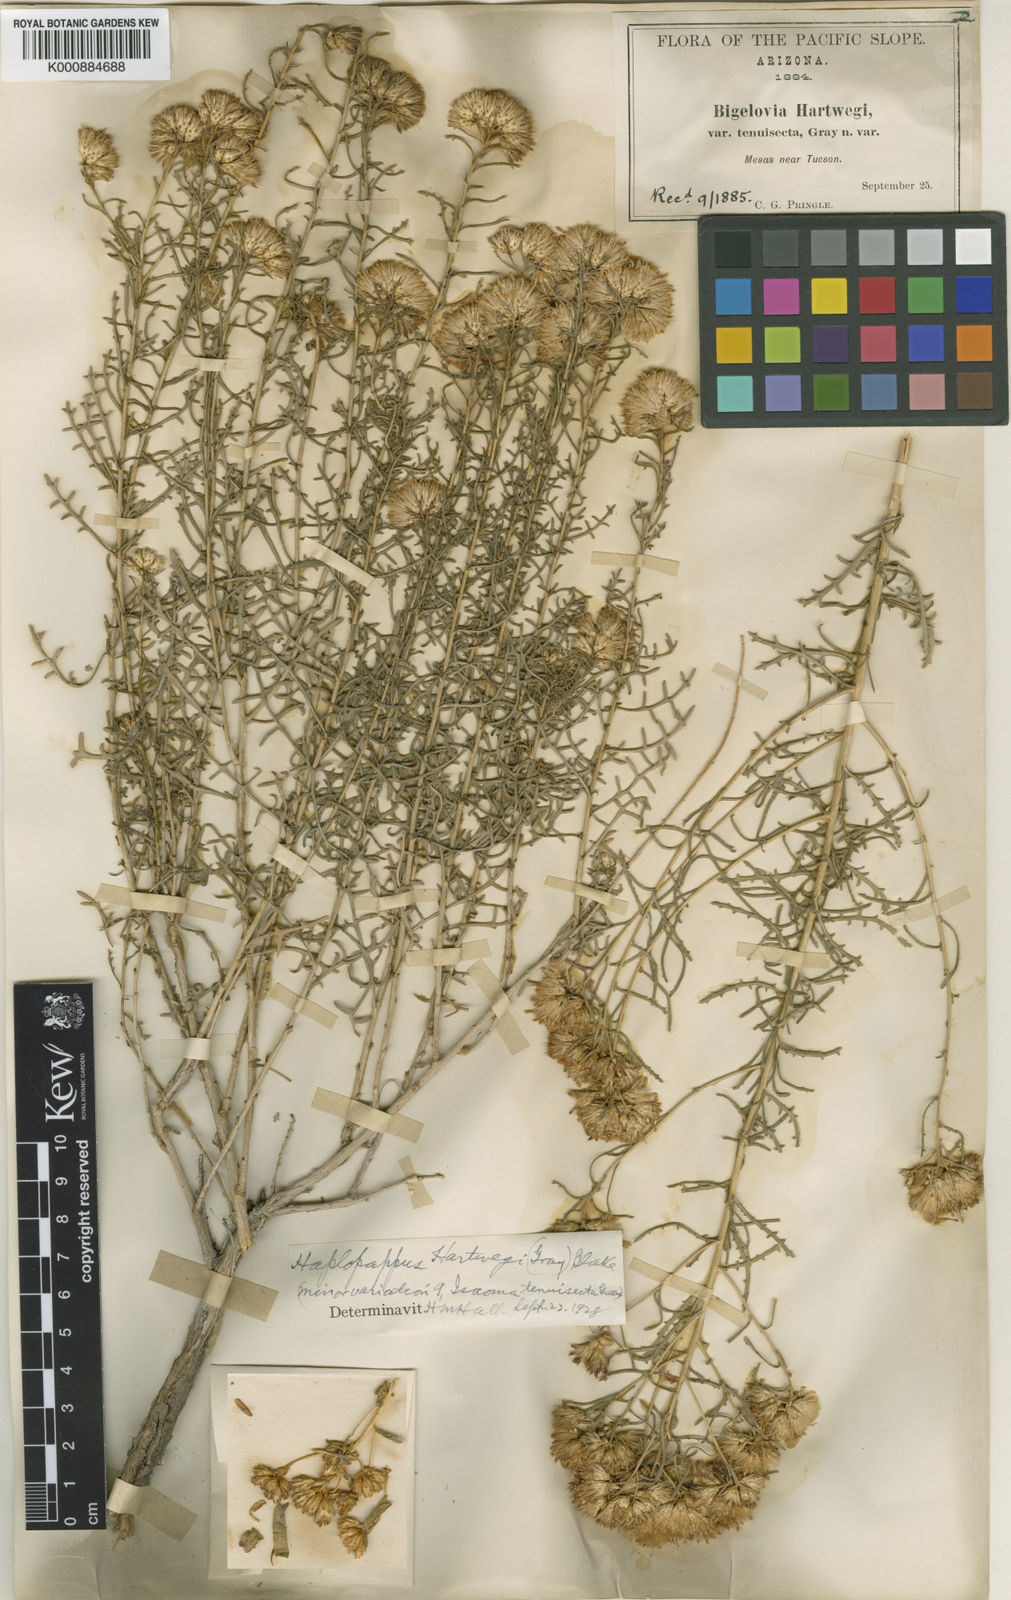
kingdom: Plantae
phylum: Tracheophyta
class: Magnoliopsida
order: Asterales
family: Asteraceae
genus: Isocoma
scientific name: Isocoma hartwegii
